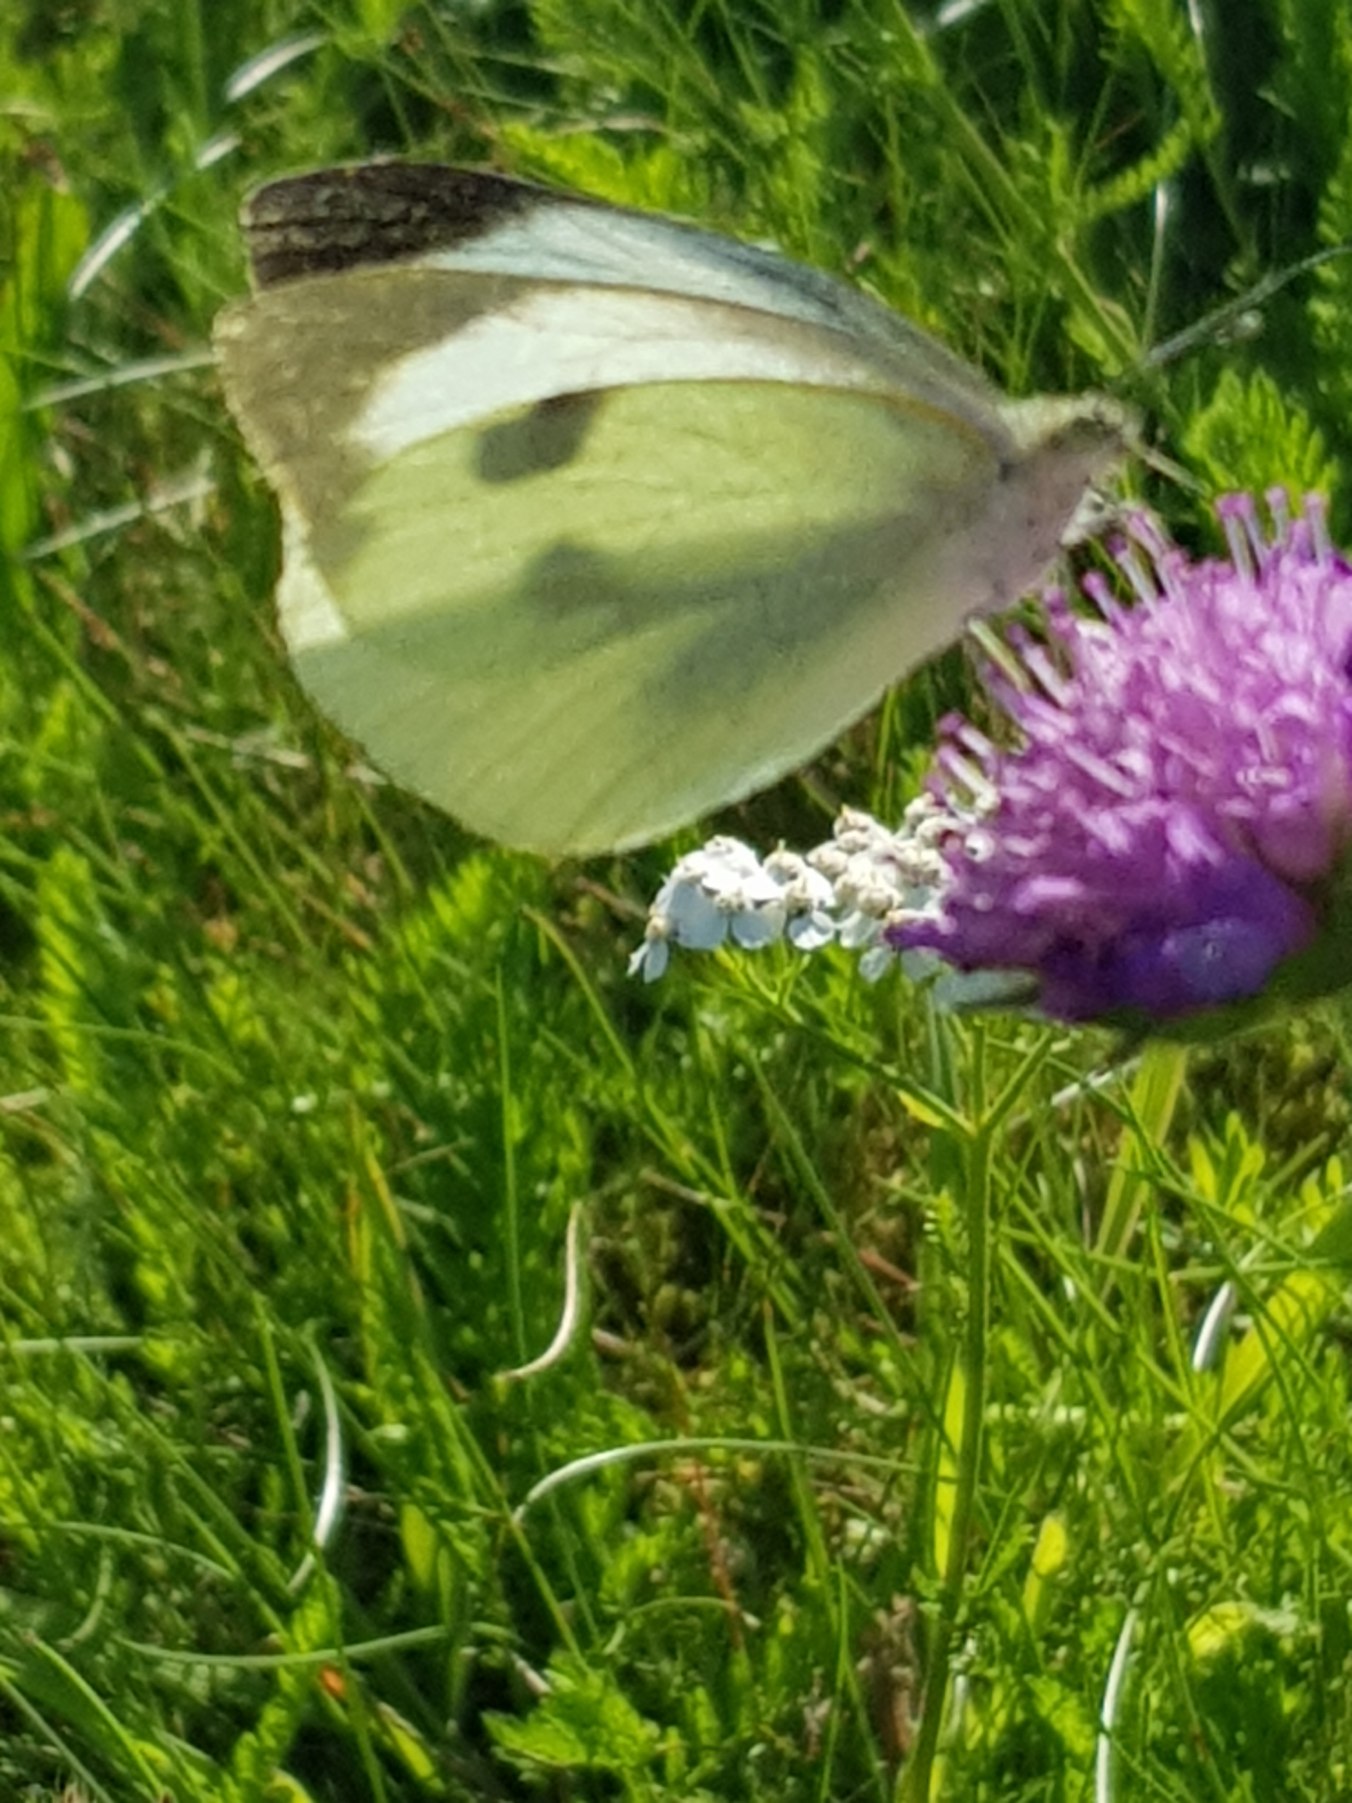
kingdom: Animalia
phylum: Arthropoda
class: Insecta
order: Lepidoptera
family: Pieridae
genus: Pieris
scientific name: Pieris brassicae
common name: Stor kålsommerfugl
